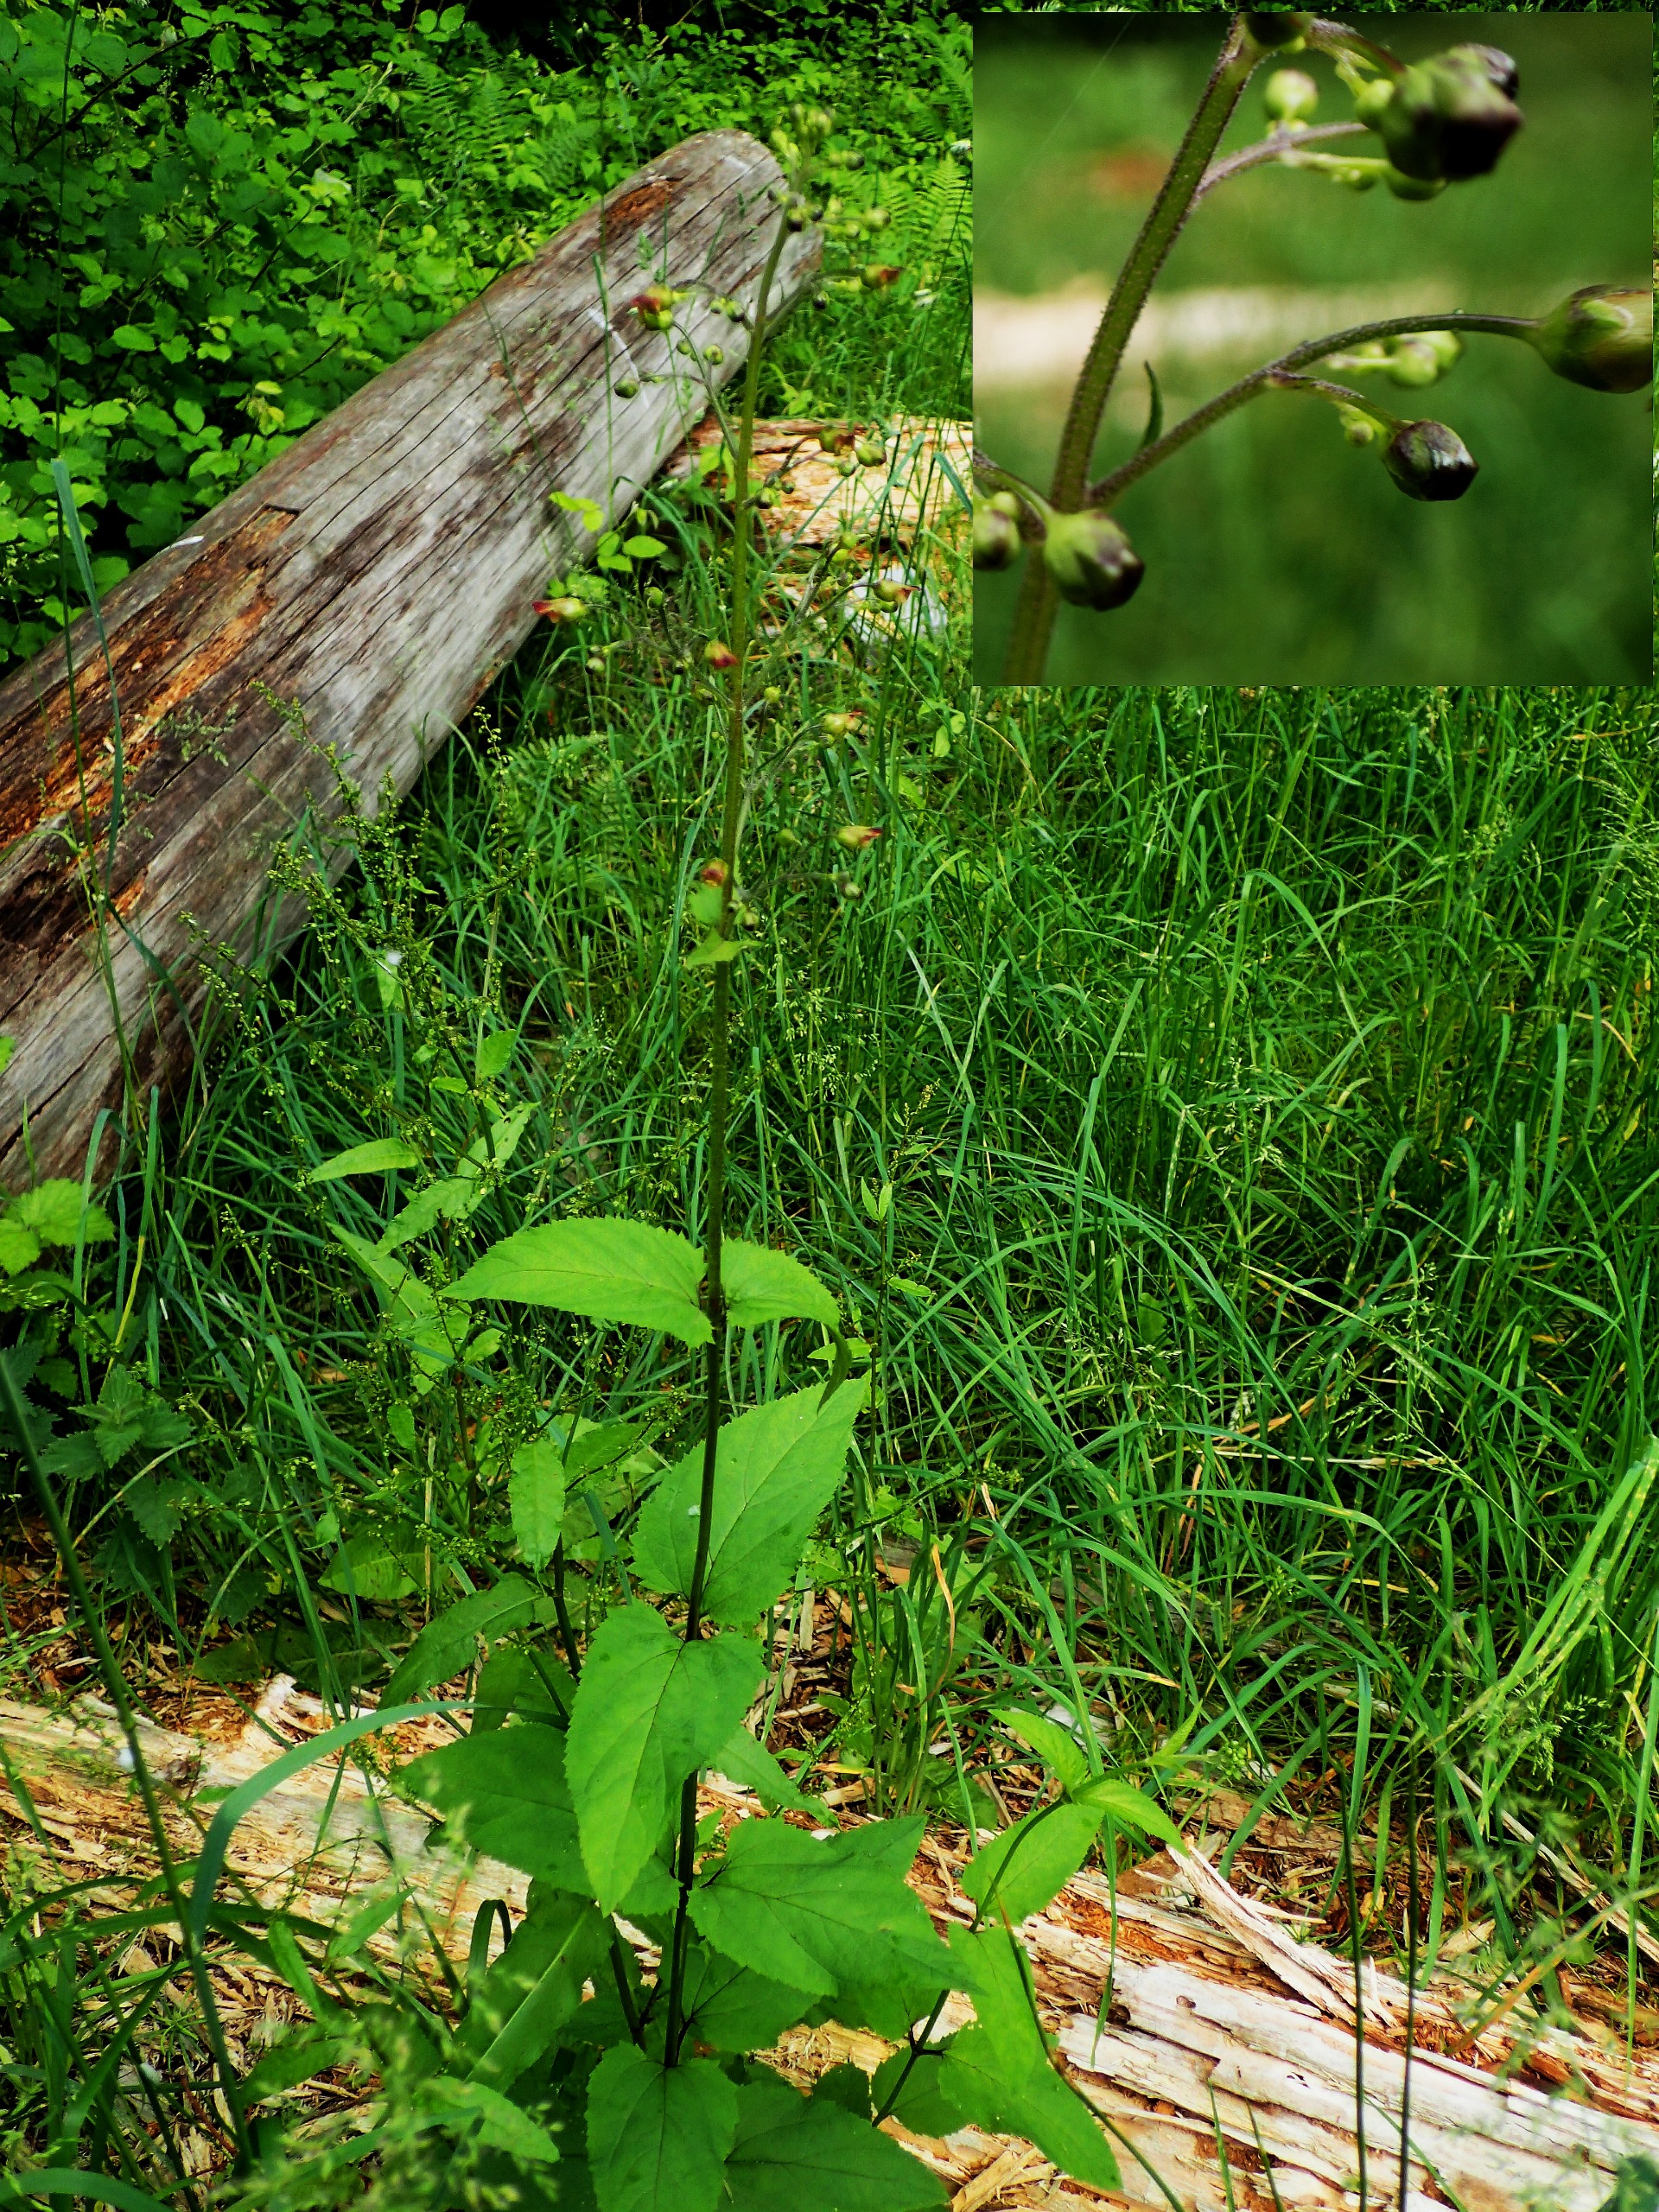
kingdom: Plantae
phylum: Tracheophyta
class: Magnoliopsida
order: Lamiales
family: Scrophulariaceae
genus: Scrophularia
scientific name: Scrophularia nodosa
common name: Knoldet brunrod
